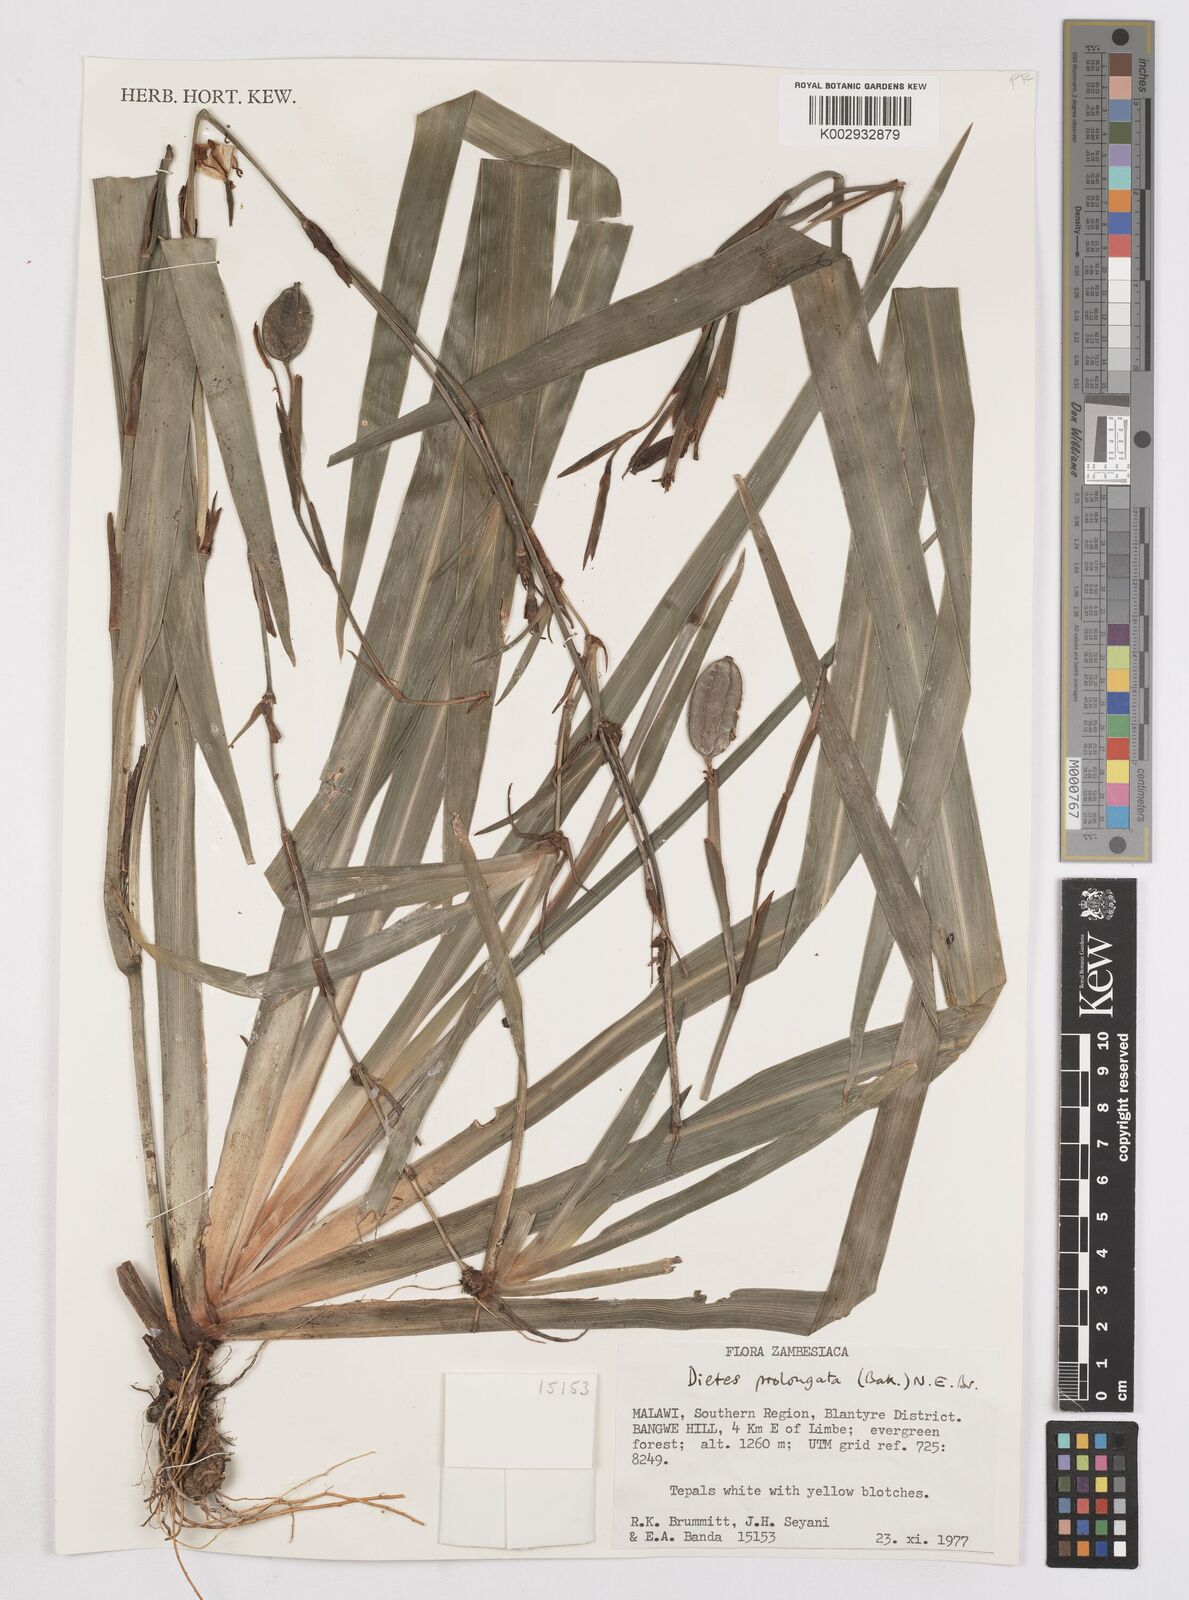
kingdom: Plantae
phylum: Tracheophyta
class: Liliopsida
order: Asparagales
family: Iridaceae
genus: Dietes
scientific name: Dietes iridioides
